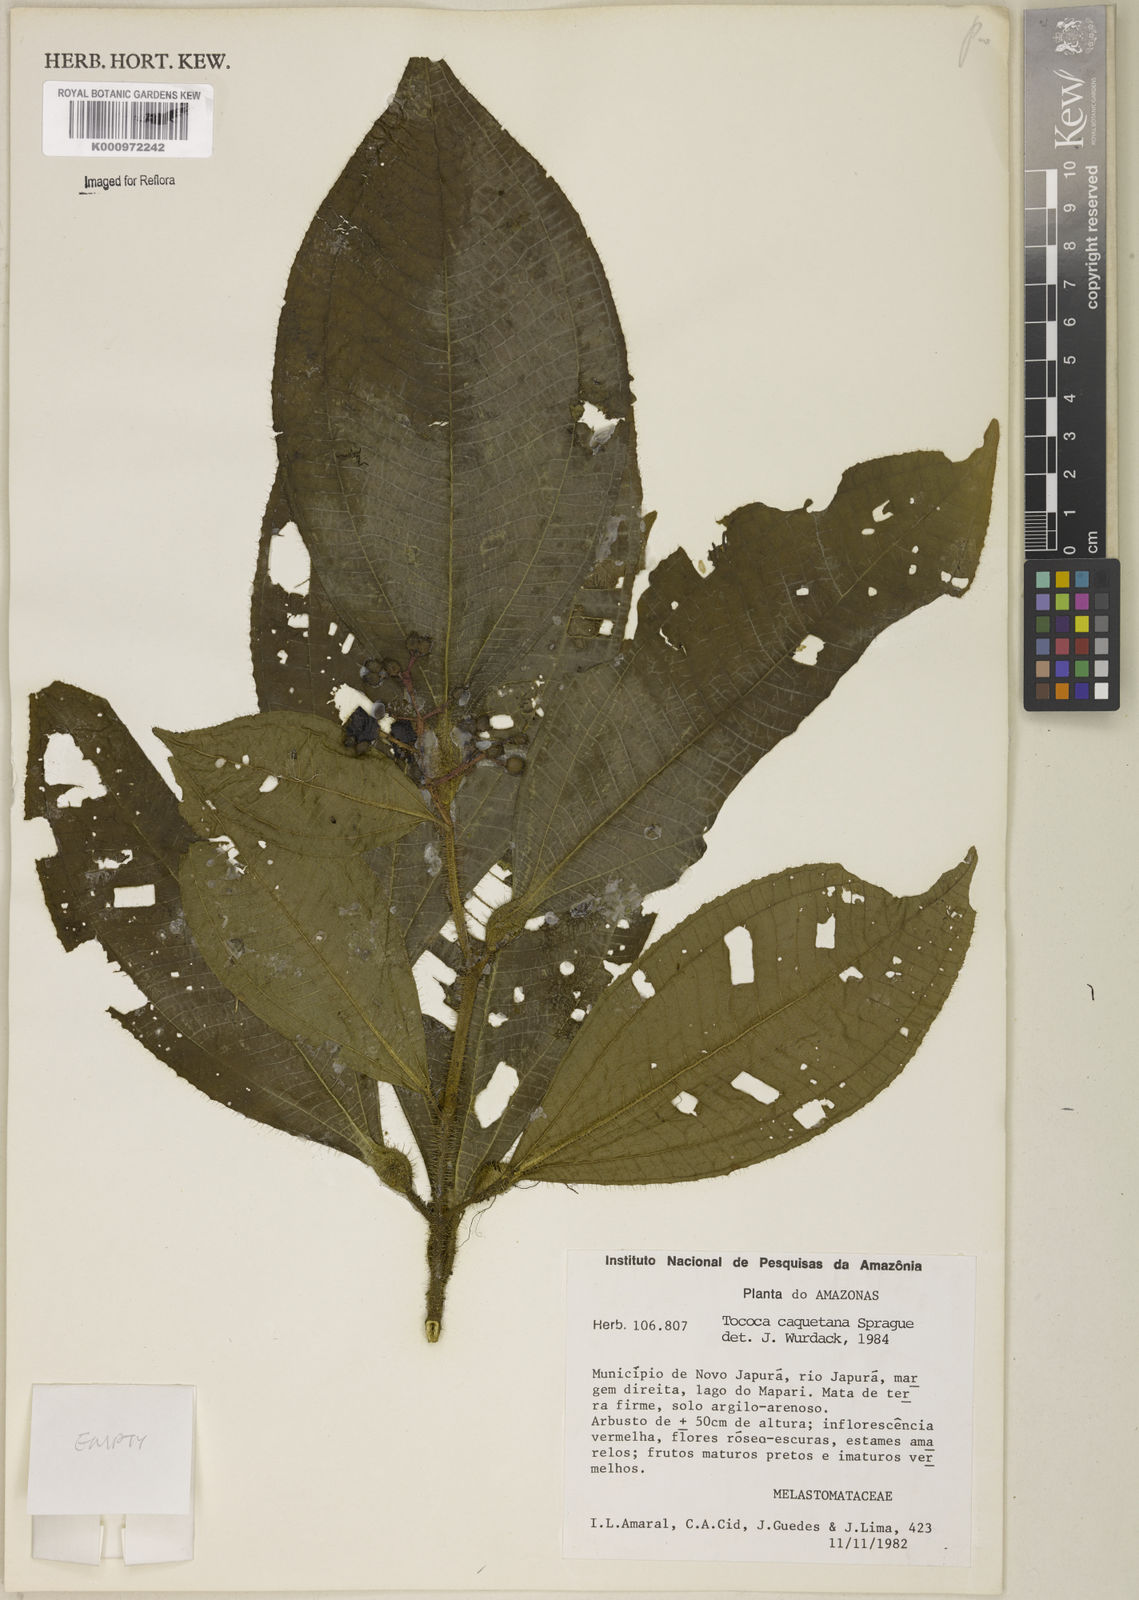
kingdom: Plantae
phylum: Tracheophyta
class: Magnoliopsida
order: Myrtales
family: Melastomataceae
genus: Miconia
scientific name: Miconia caquetana
